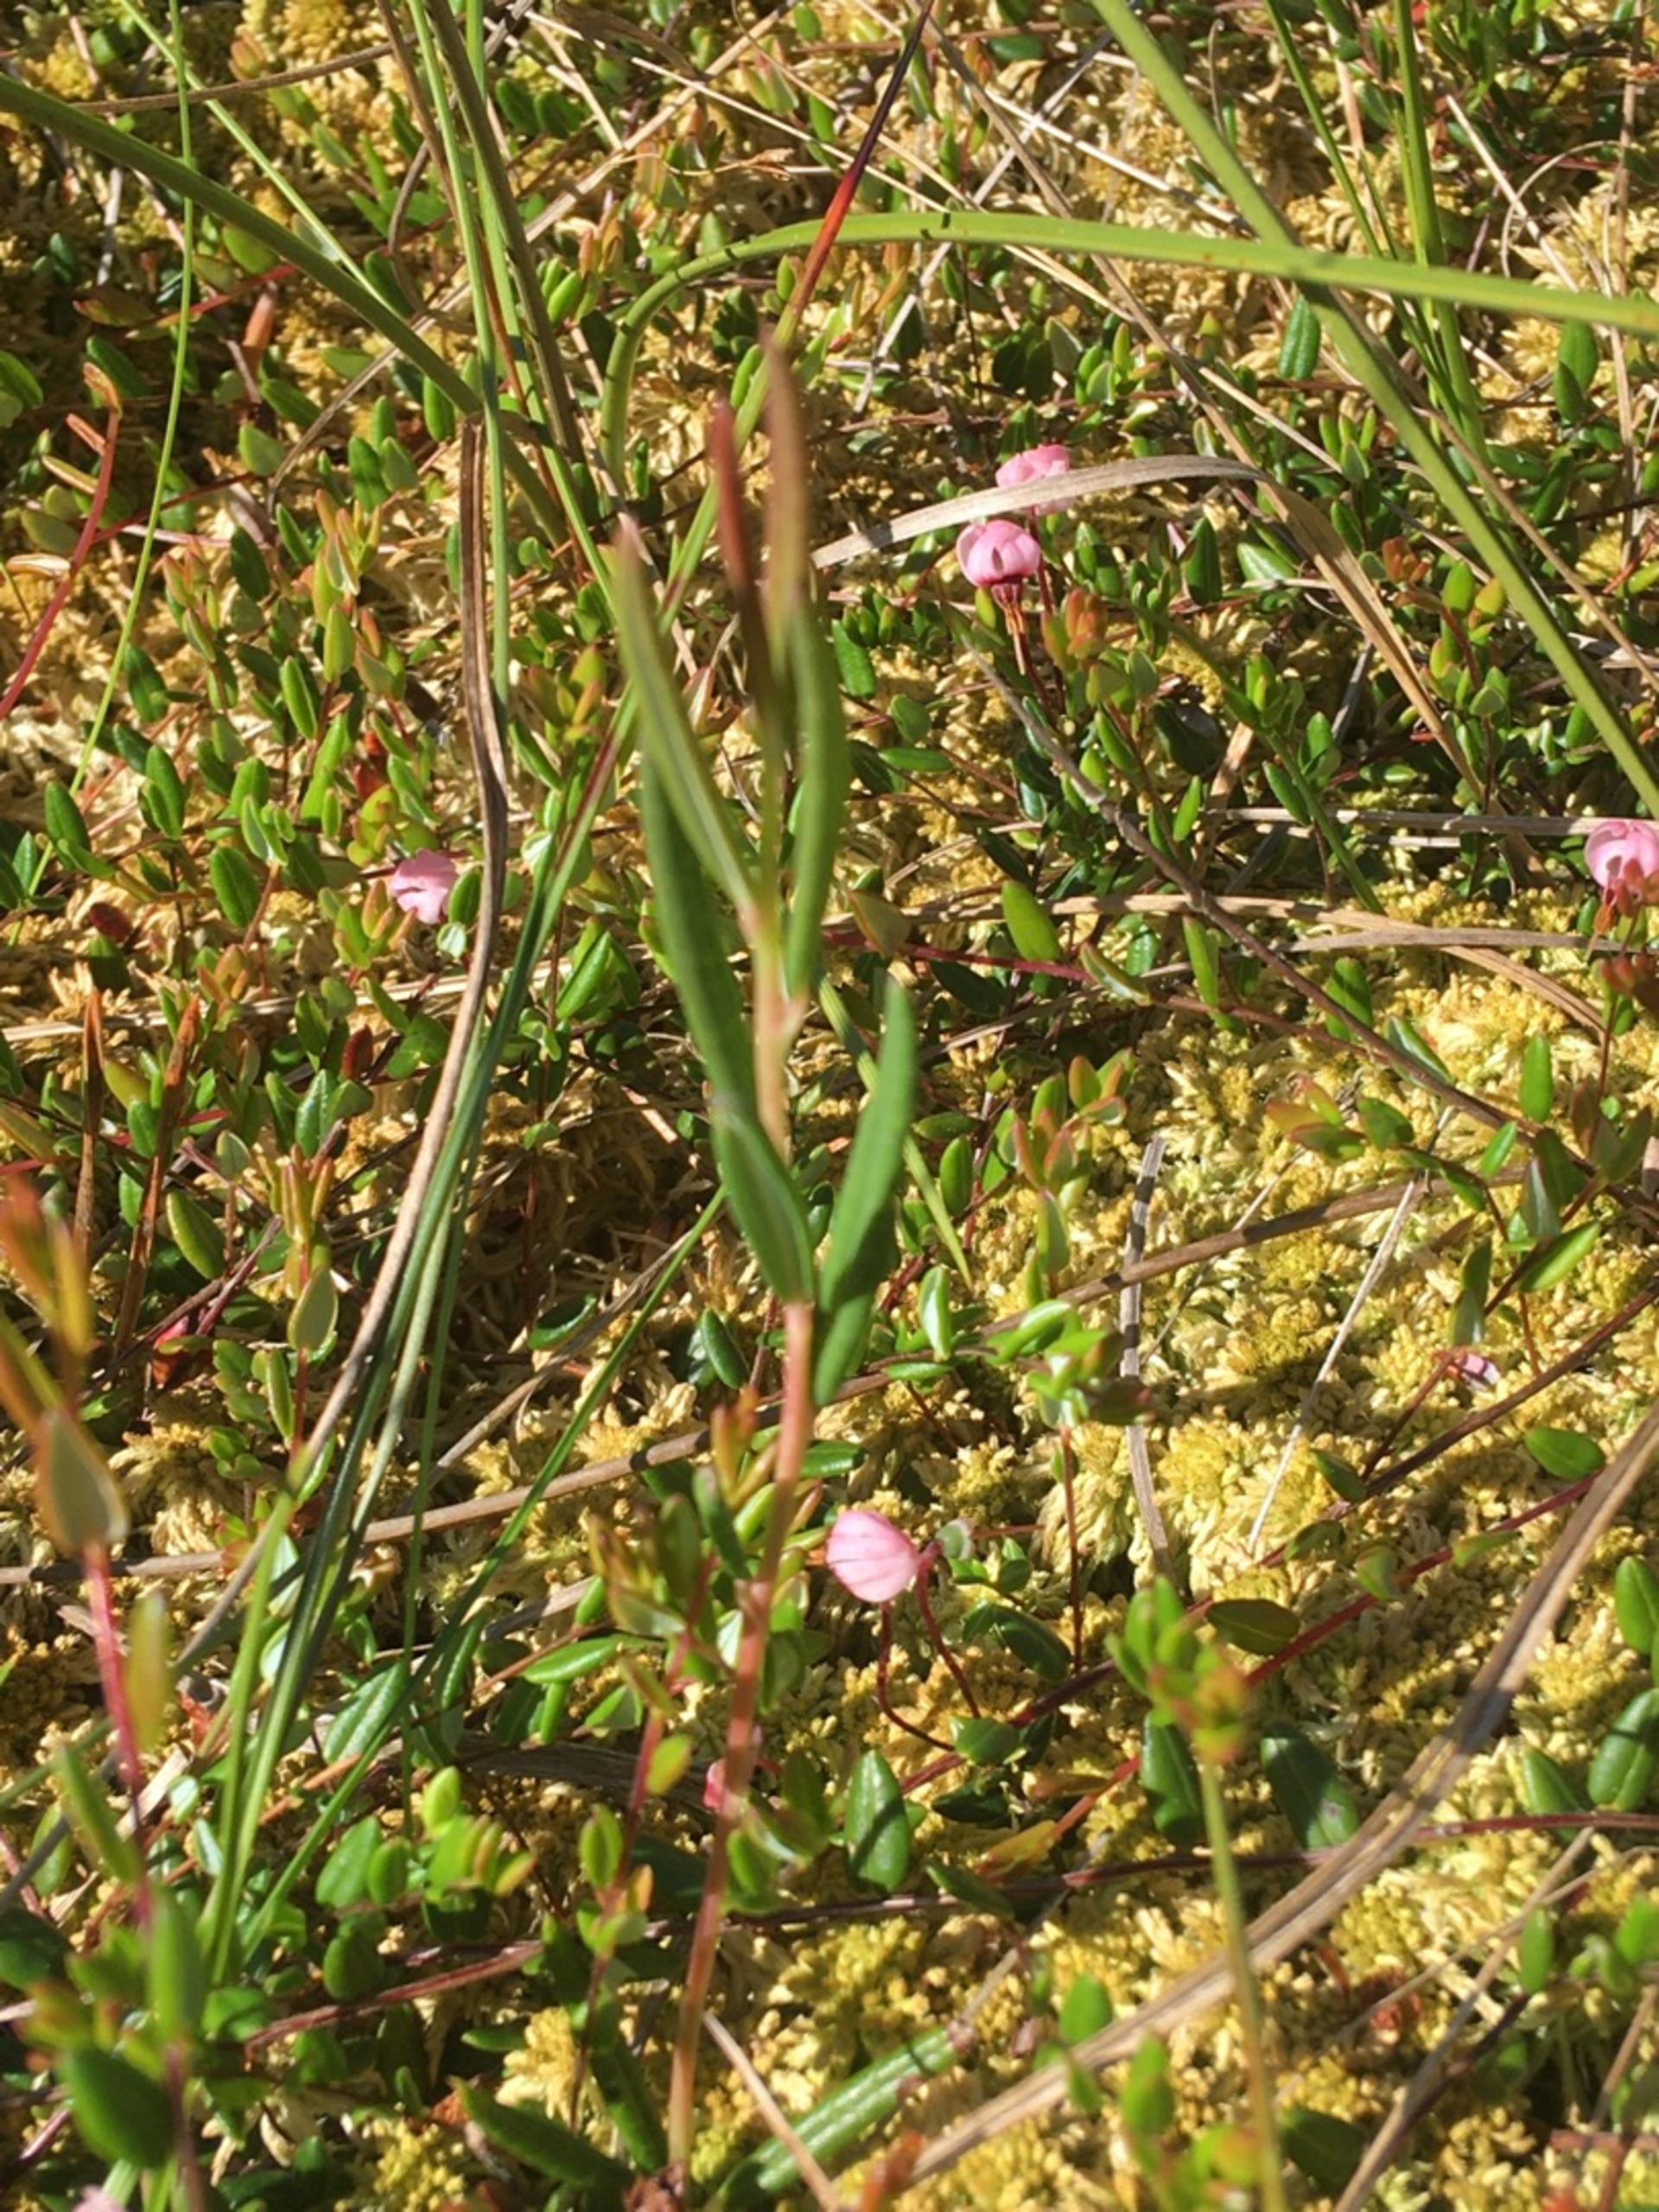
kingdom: Plantae
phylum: Tracheophyta
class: Magnoliopsida
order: Ericales
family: Ericaceae
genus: Andromeda
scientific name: Andromeda polifolia
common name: Rosmarinlyng
